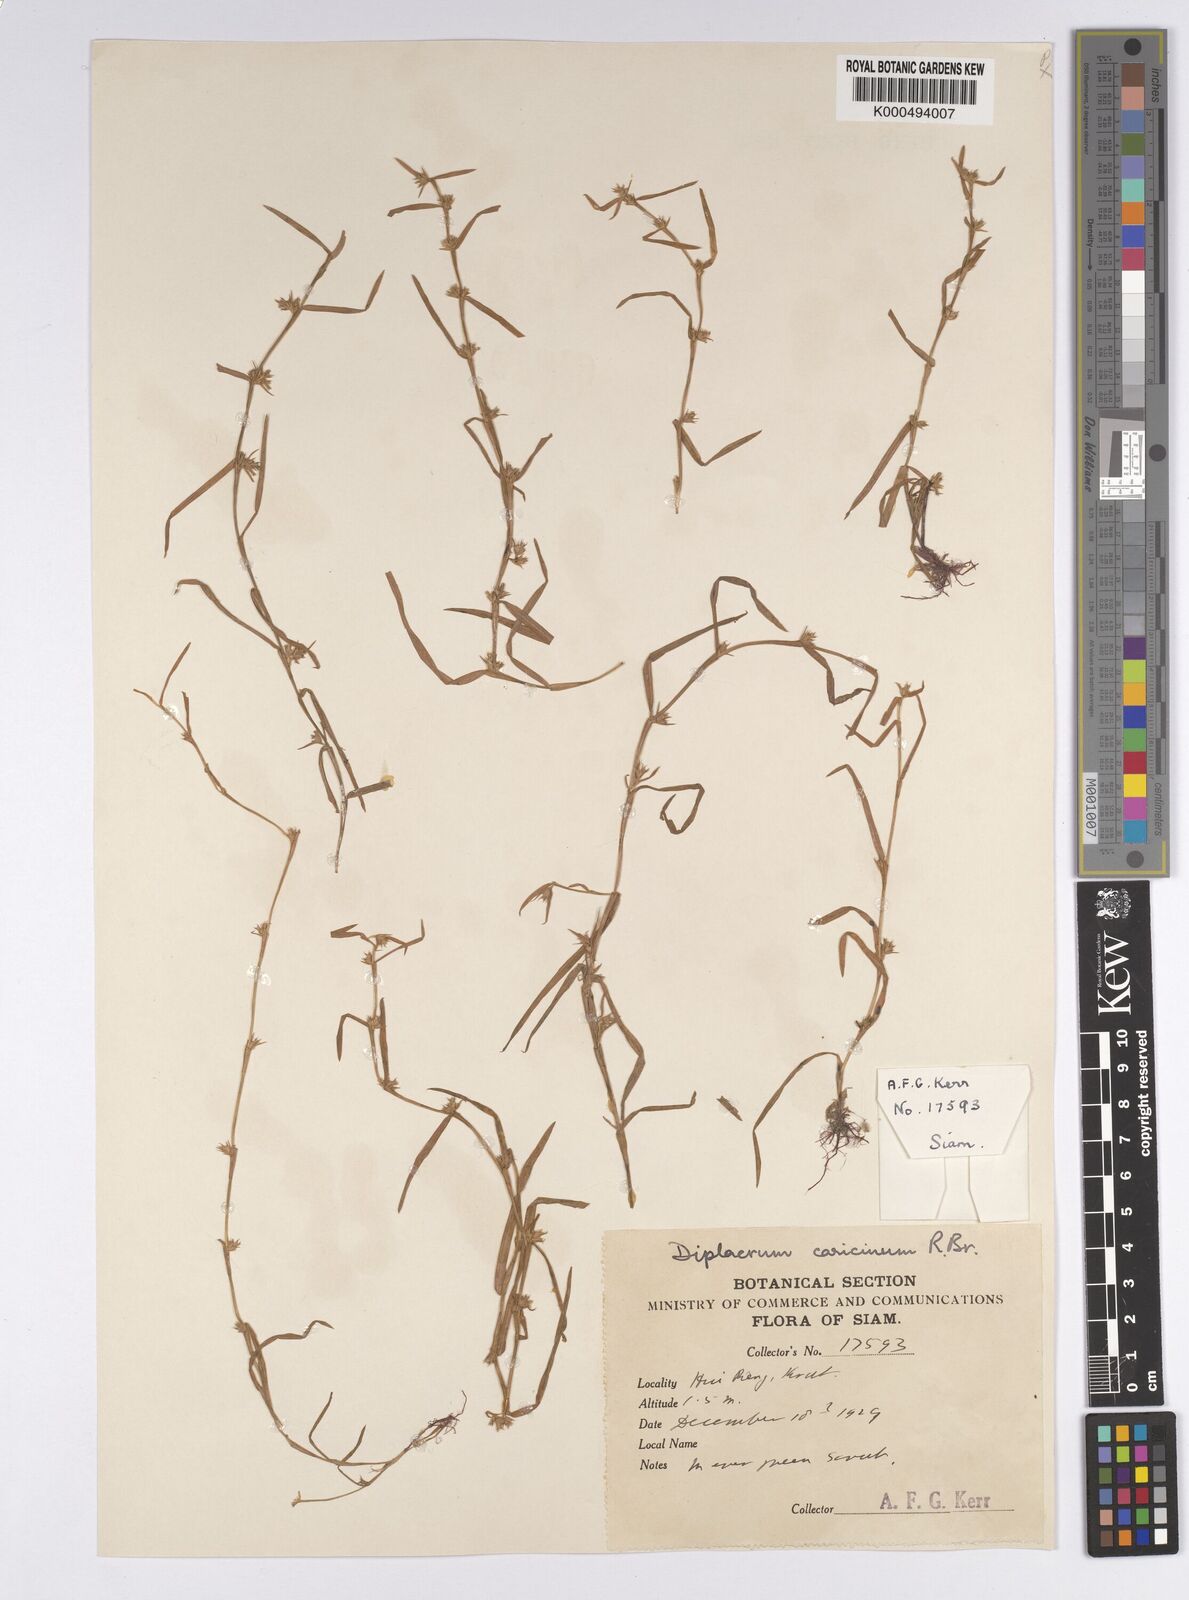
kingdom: Plantae
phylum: Tracheophyta
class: Liliopsida
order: Poales
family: Cyperaceae
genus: Diplacrum
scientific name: Diplacrum caricinum
